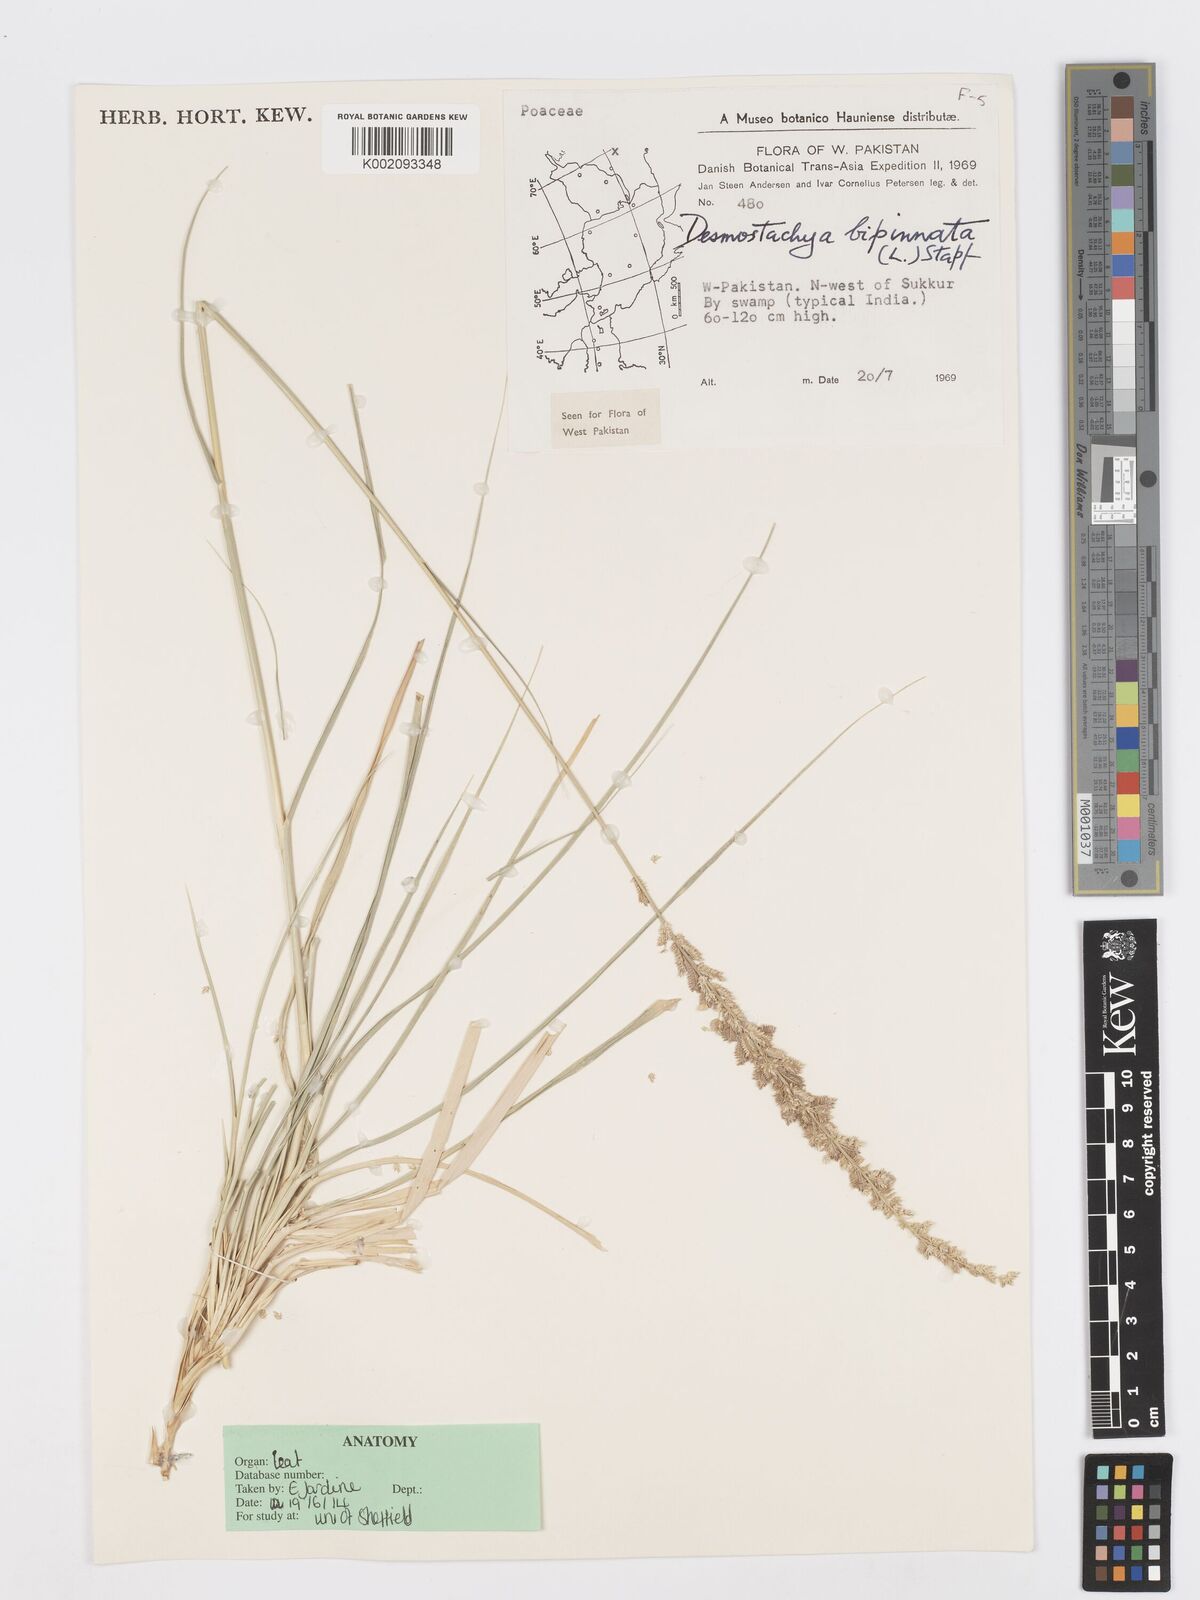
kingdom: Plantae
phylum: Tracheophyta
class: Liliopsida
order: Poales
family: Poaceae
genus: Desmostachya
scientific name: Desmostachya bipinnata
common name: Crowfoot grass
